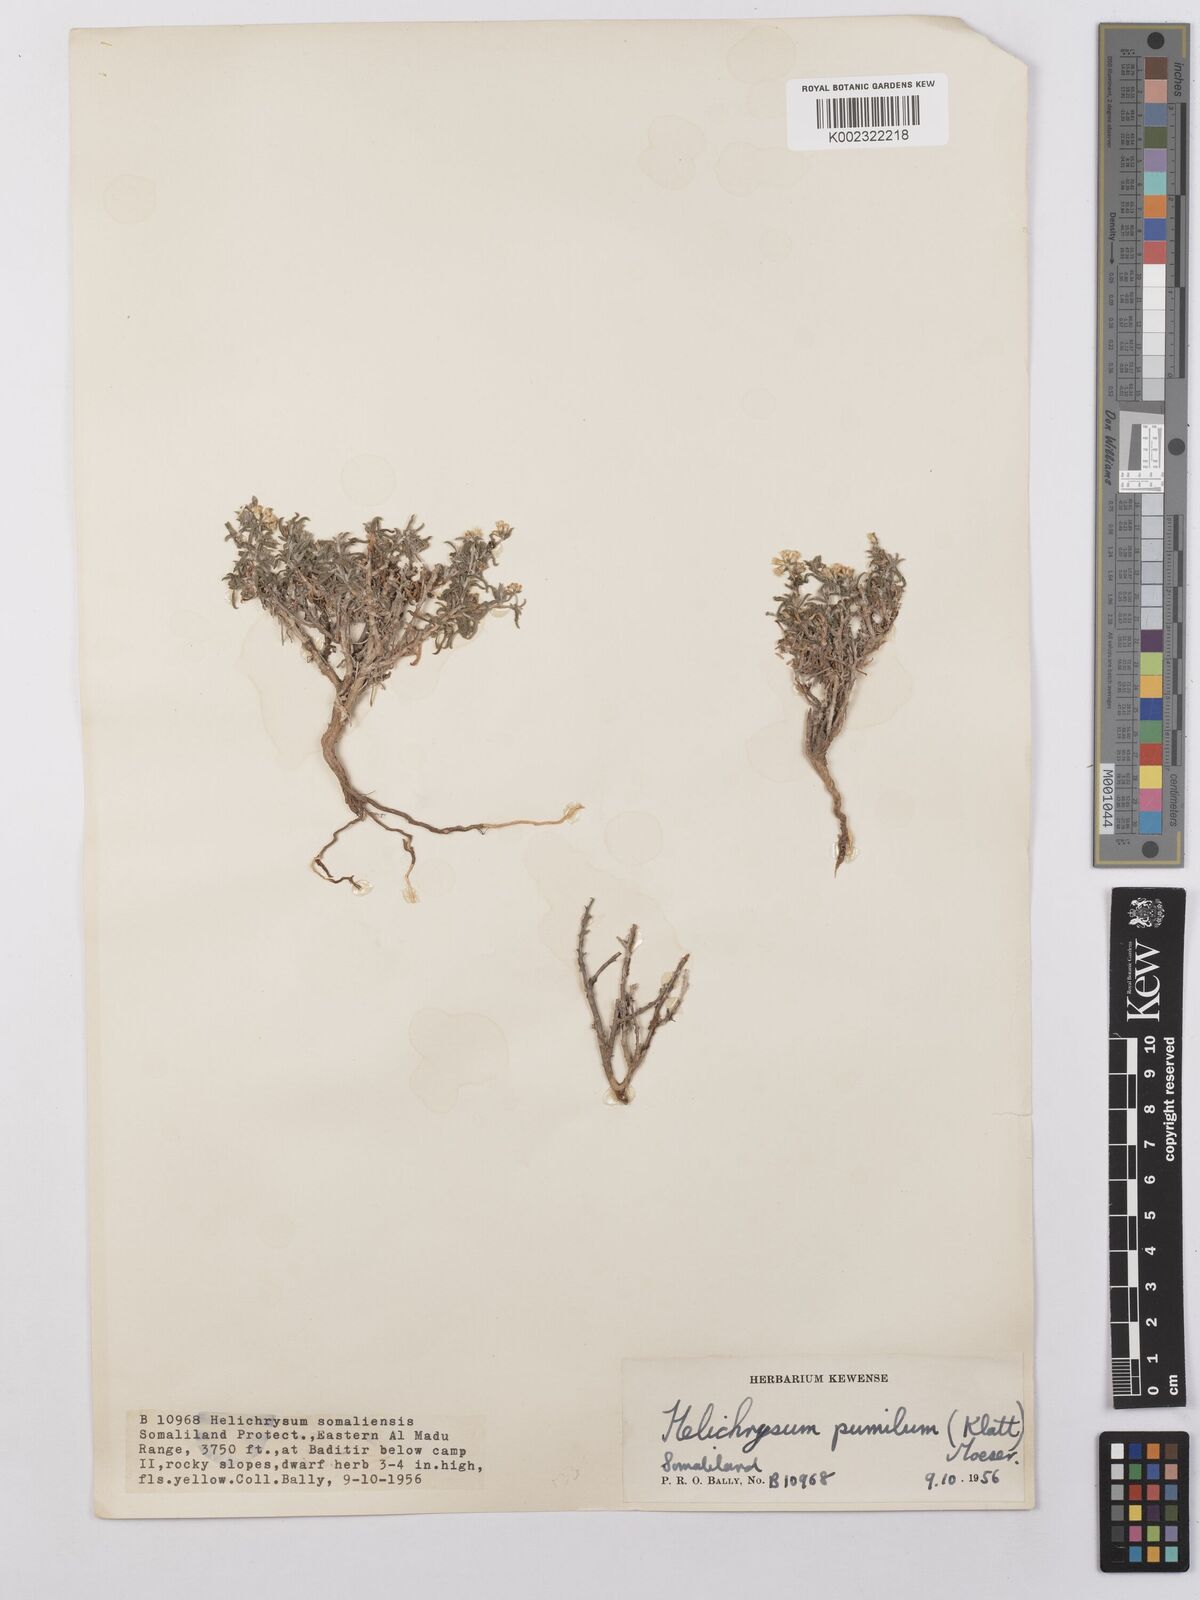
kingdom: Plantae
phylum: Tracheophyta
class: Magnoliopsida
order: Asterales
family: Asteraceae
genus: Helichrysum
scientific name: Helichrysum pumilum
